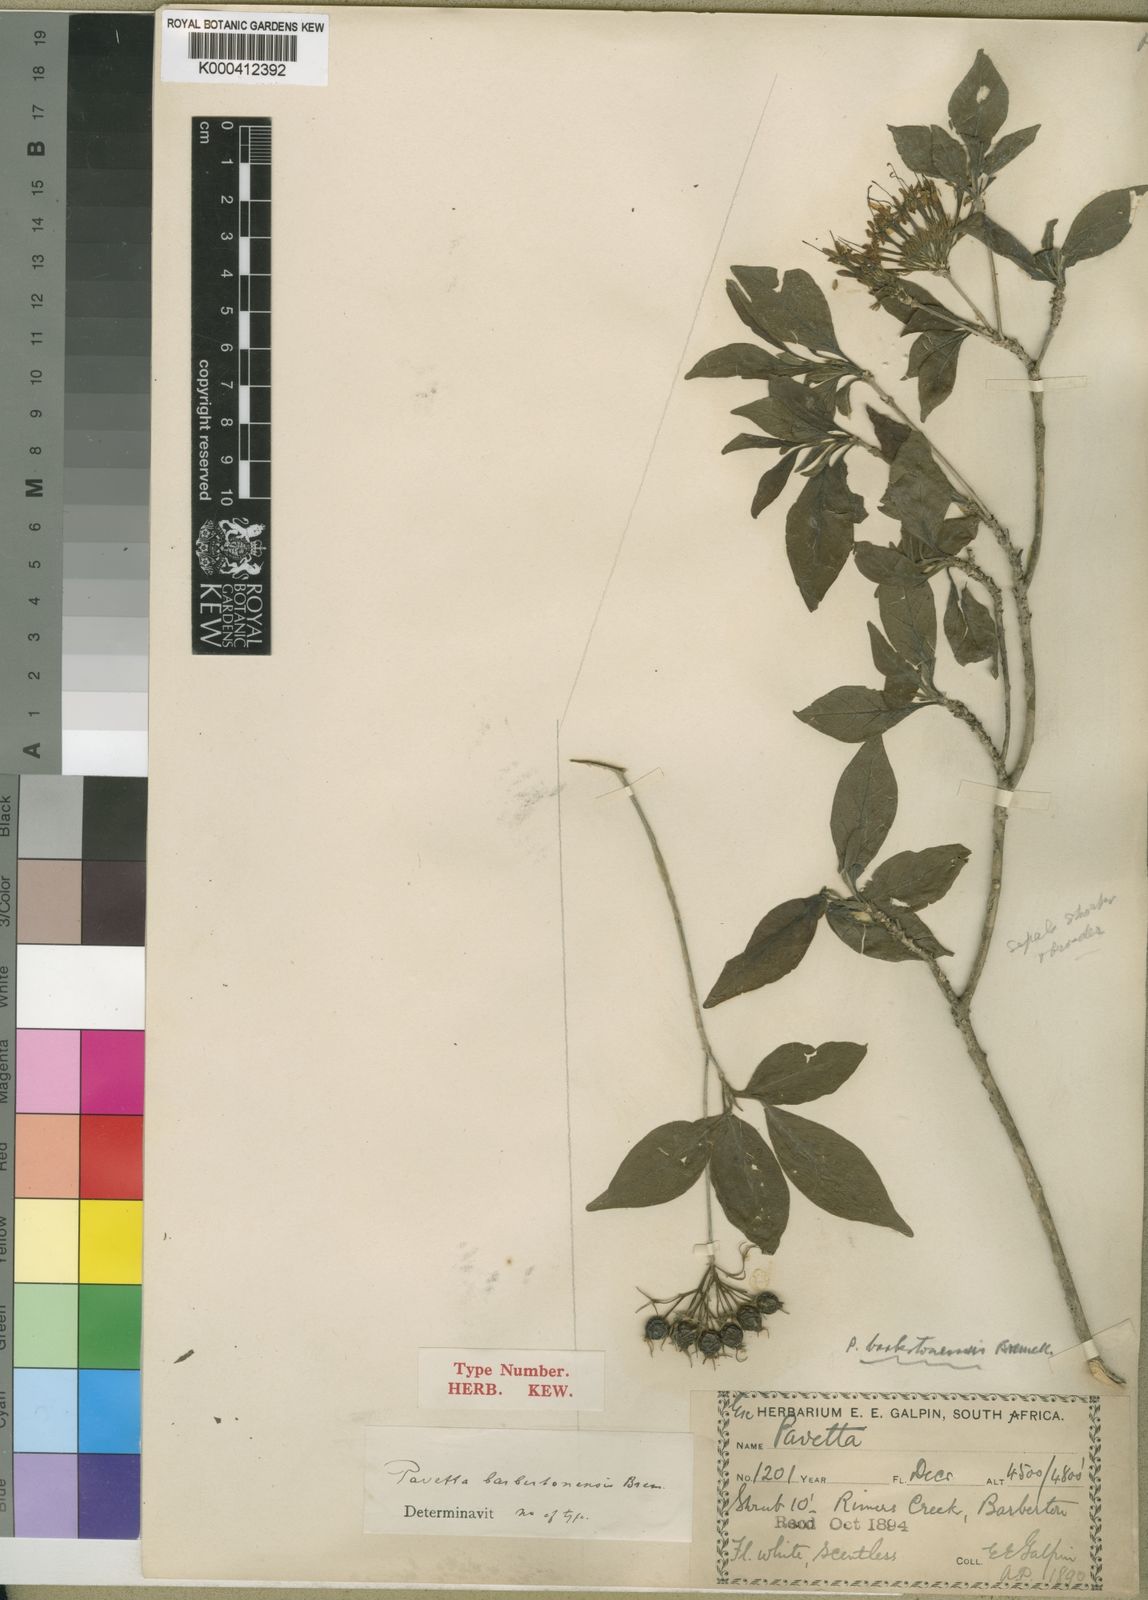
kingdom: Plantae
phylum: Tracheophyta
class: Magnoliopsida
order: Gentianales
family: Rubiaceae
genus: Pavetta
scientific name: Pavetta barbertonensis
